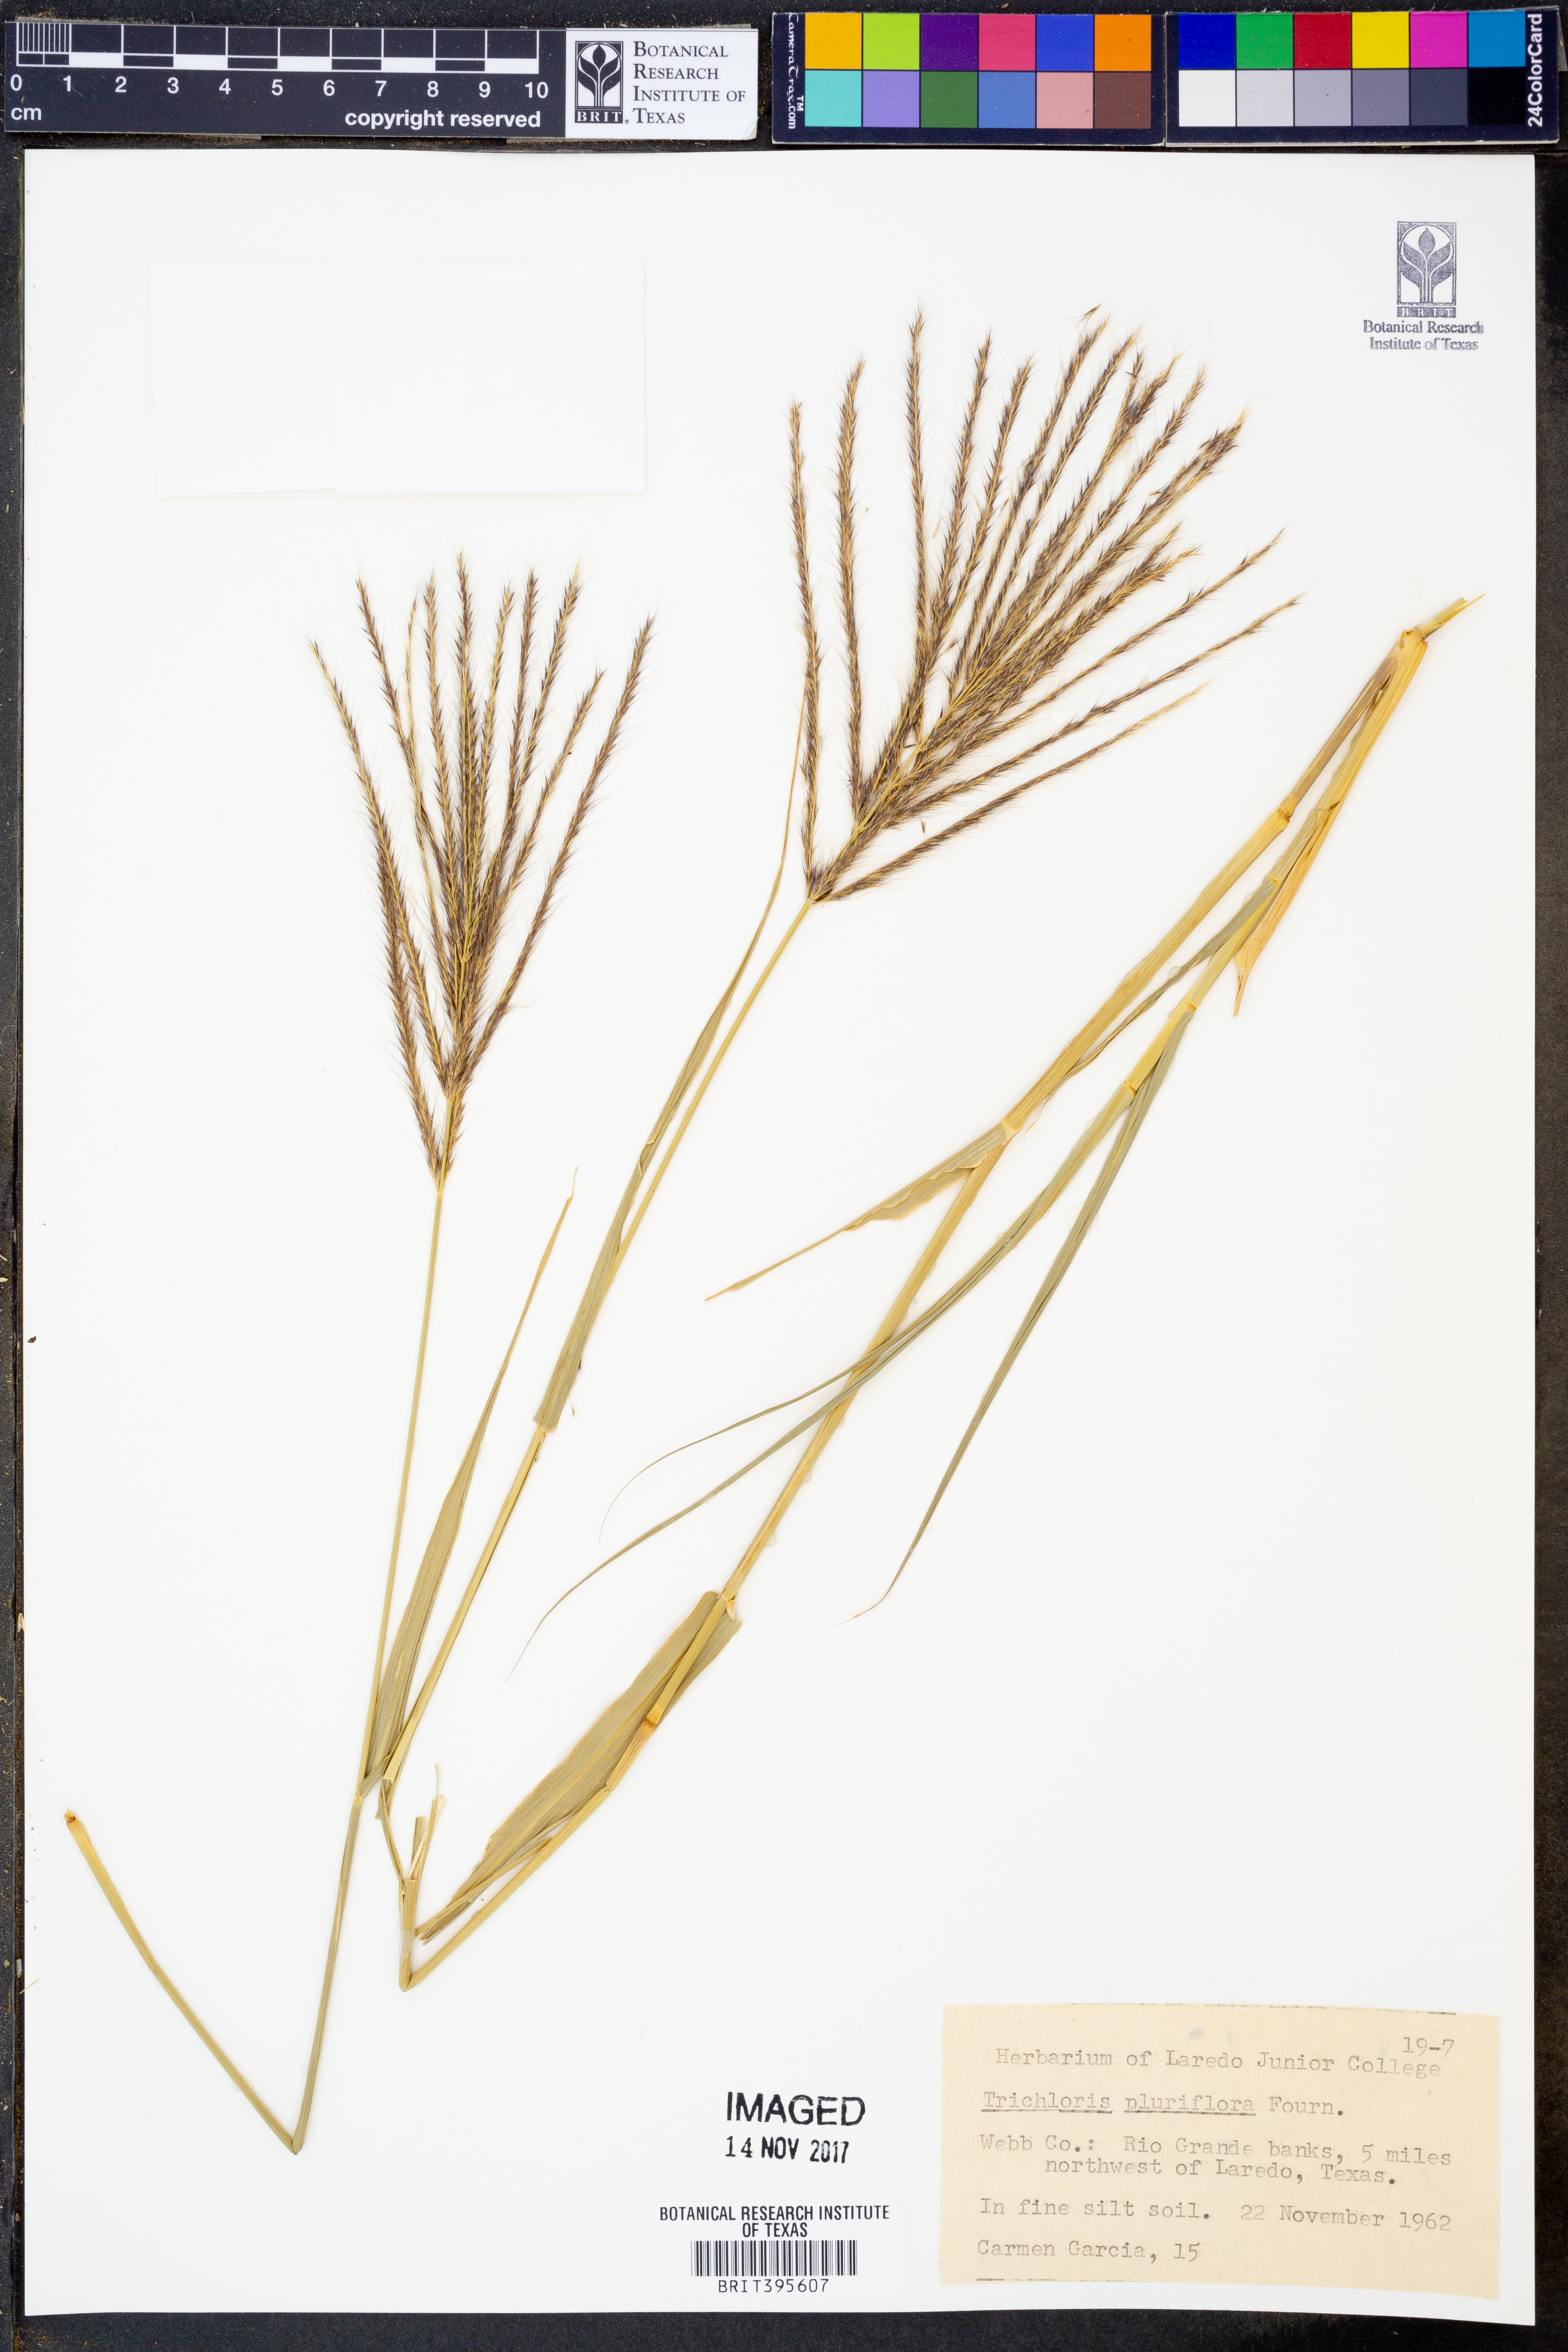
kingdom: Plantae
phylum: Tracheophyta
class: Liliopsida
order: Poales
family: Poaceae
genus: Leptochloa
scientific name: Leptochloa pluriflora
